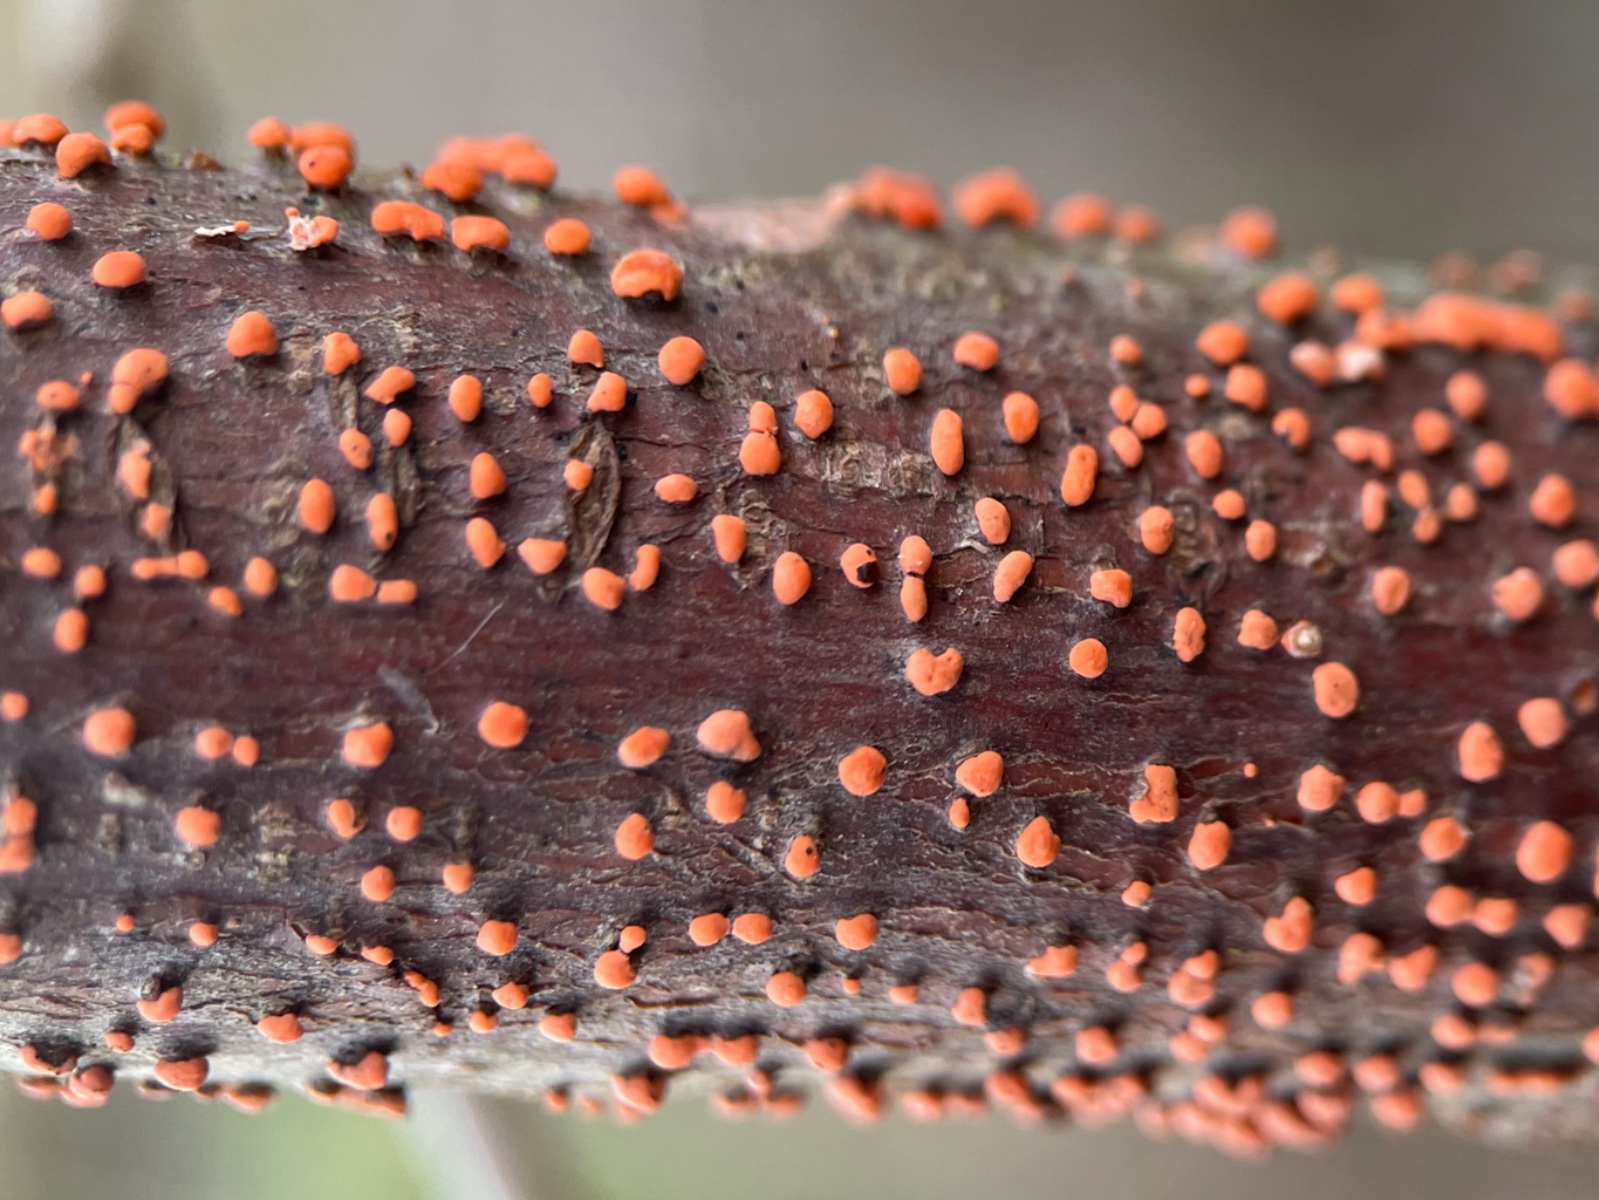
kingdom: Fungi
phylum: Ascomycota
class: Sordariomycetes
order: Hypocreales
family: Nectriaceae
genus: Nectria
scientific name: Nectria cinnabarina
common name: almindelig cinnobersvamp
